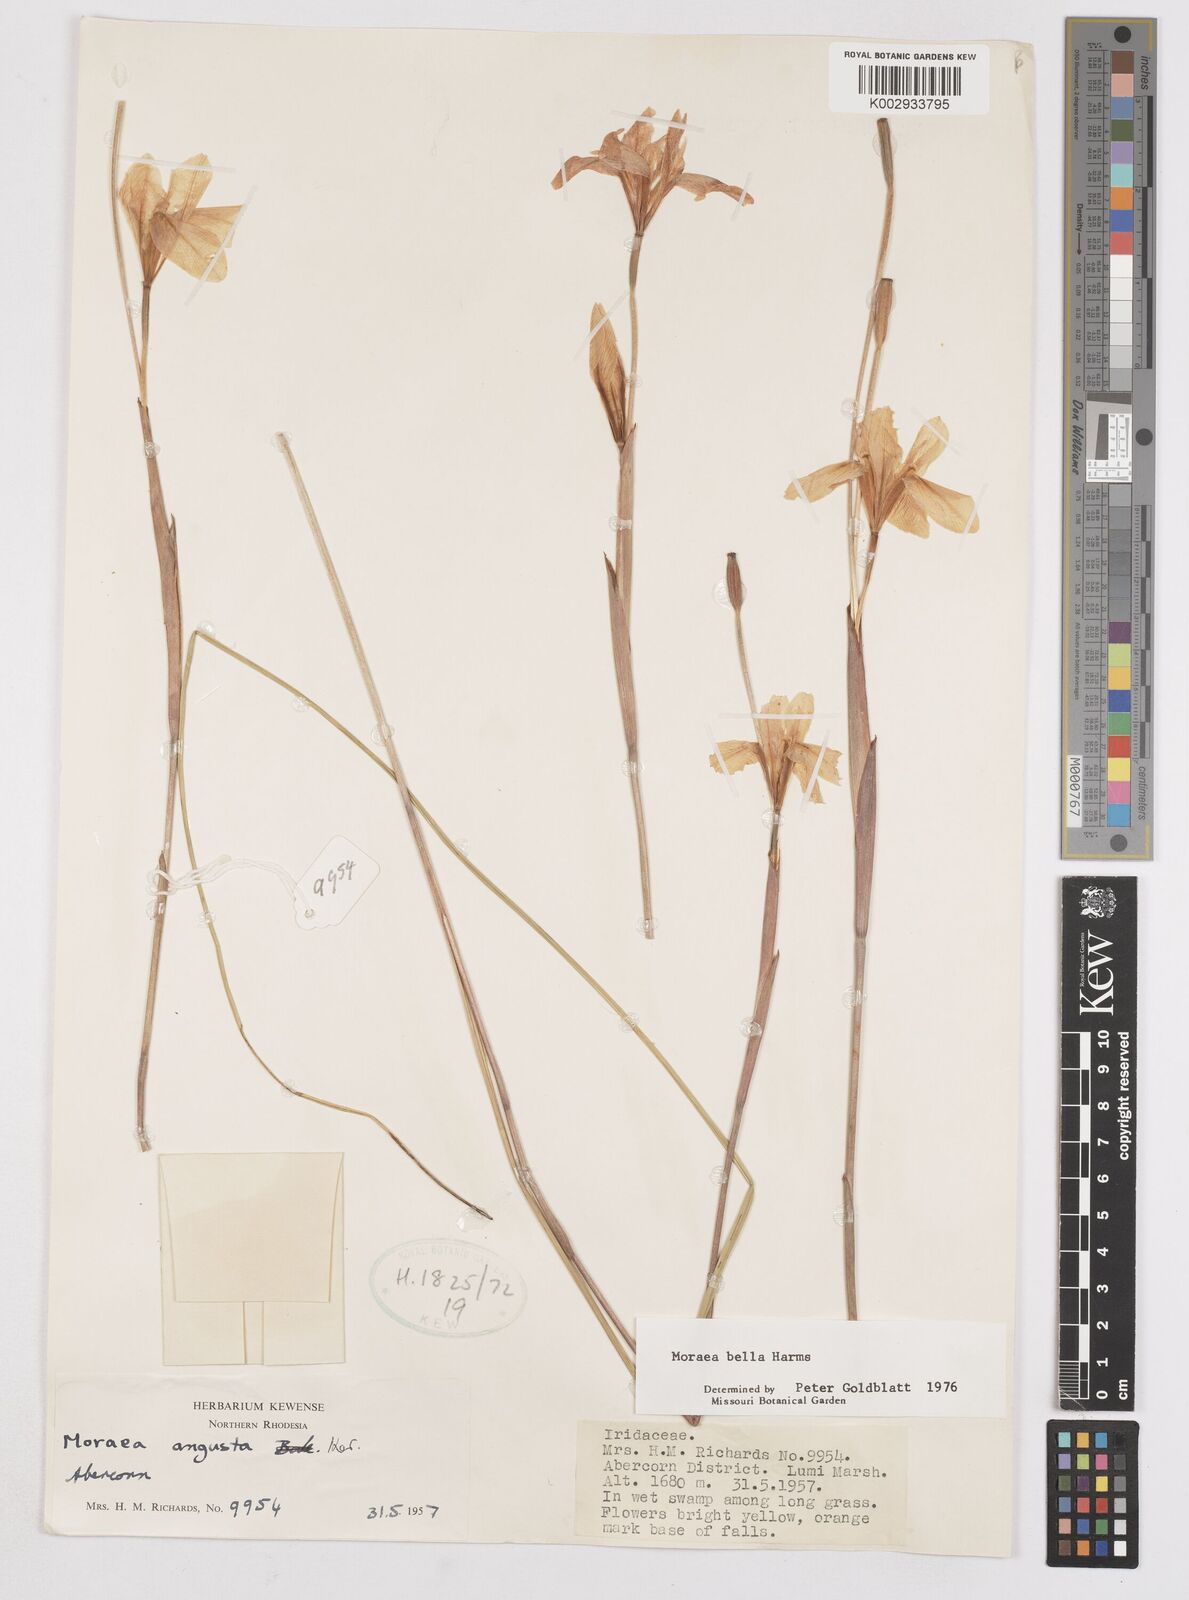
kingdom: Plantae
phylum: Tracheophyta
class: Liliopsida
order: Asparagales
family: Iridaceae
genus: Moraea
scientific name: Moraea bella
